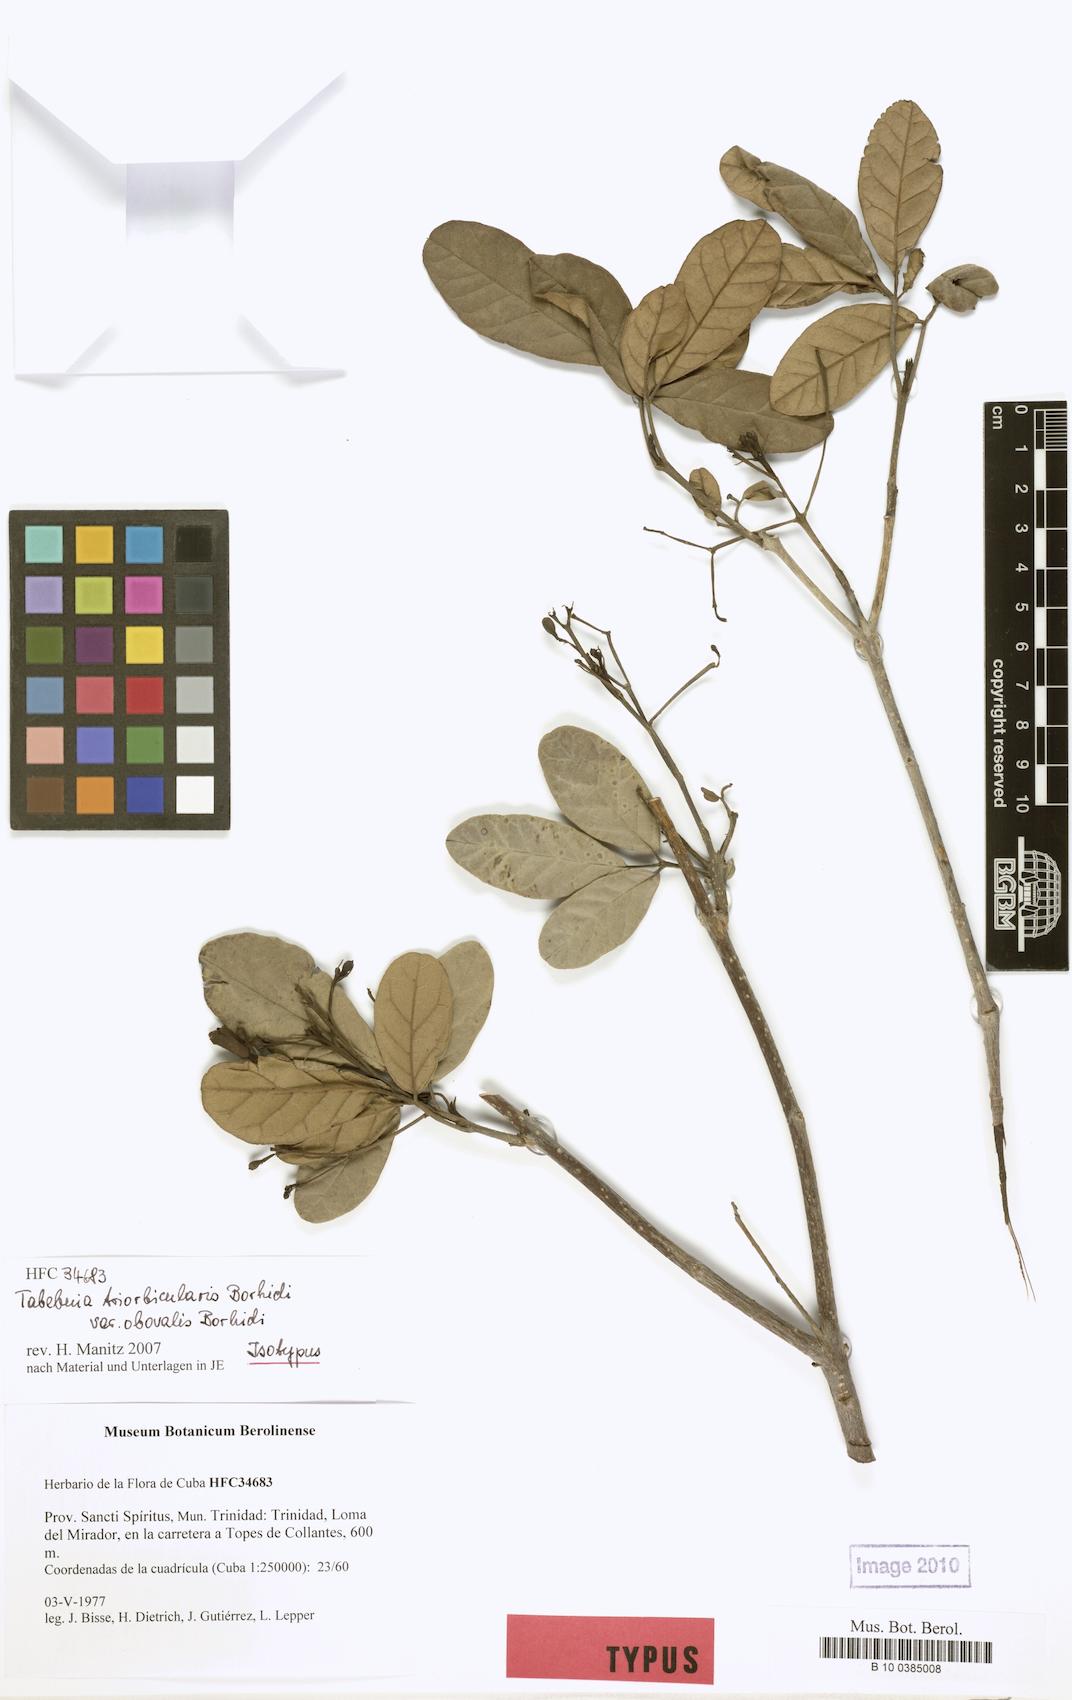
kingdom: Plantae
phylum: Tracheophyta
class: Magnoliopsida
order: Lamiales
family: Bignoniaceae
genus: Tabebuia
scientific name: Tabebuia calcicola
